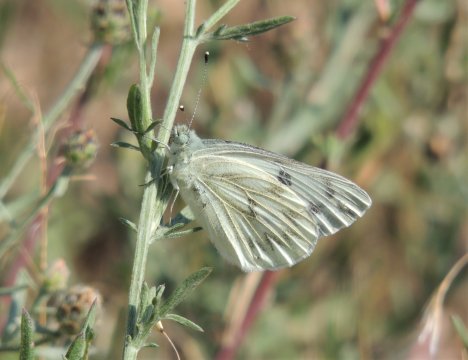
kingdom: Animalia
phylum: Arthropoda
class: Insecta
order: Lepidoptera
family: Pieridae
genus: Pontia
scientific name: Pontia occidentalis
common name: Western White
